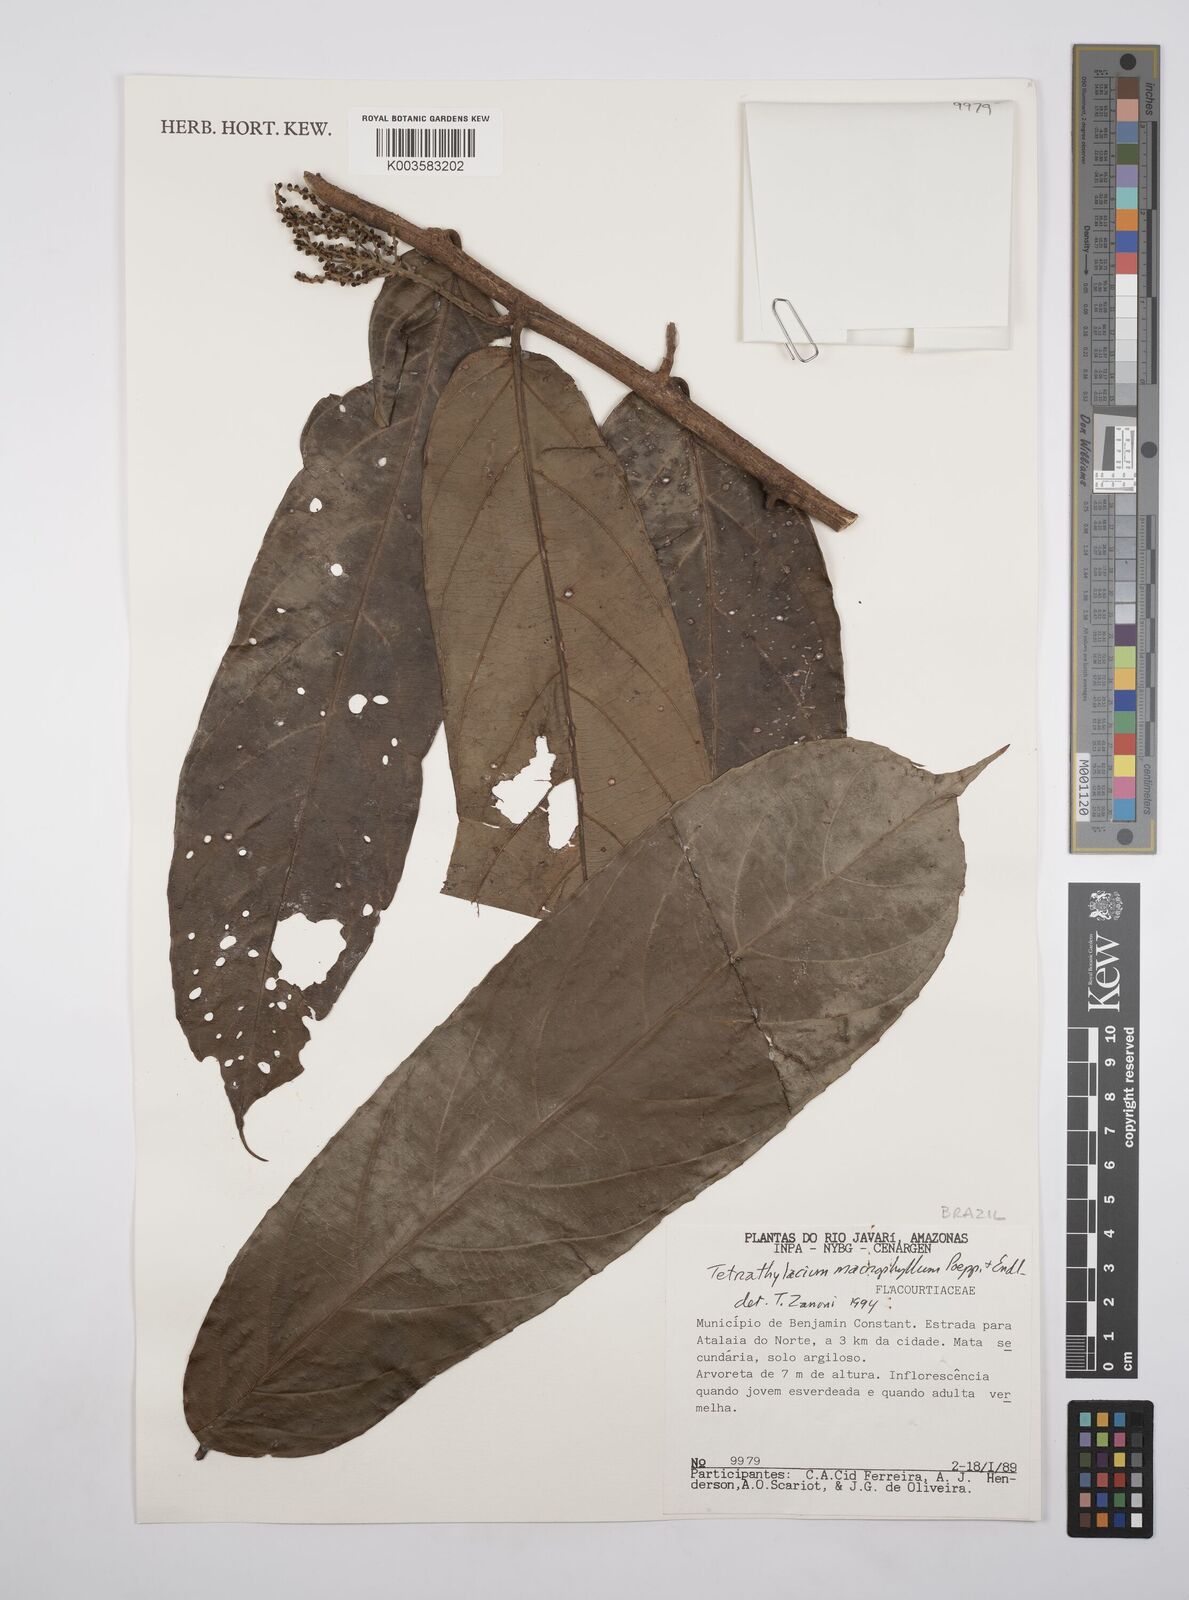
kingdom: Plantae
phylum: Tracheophyta
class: Magnoliopsida
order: Malpighiales
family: Salicaceae
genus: Tetrathylacium
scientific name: Tetrathylacium macrophyllum
